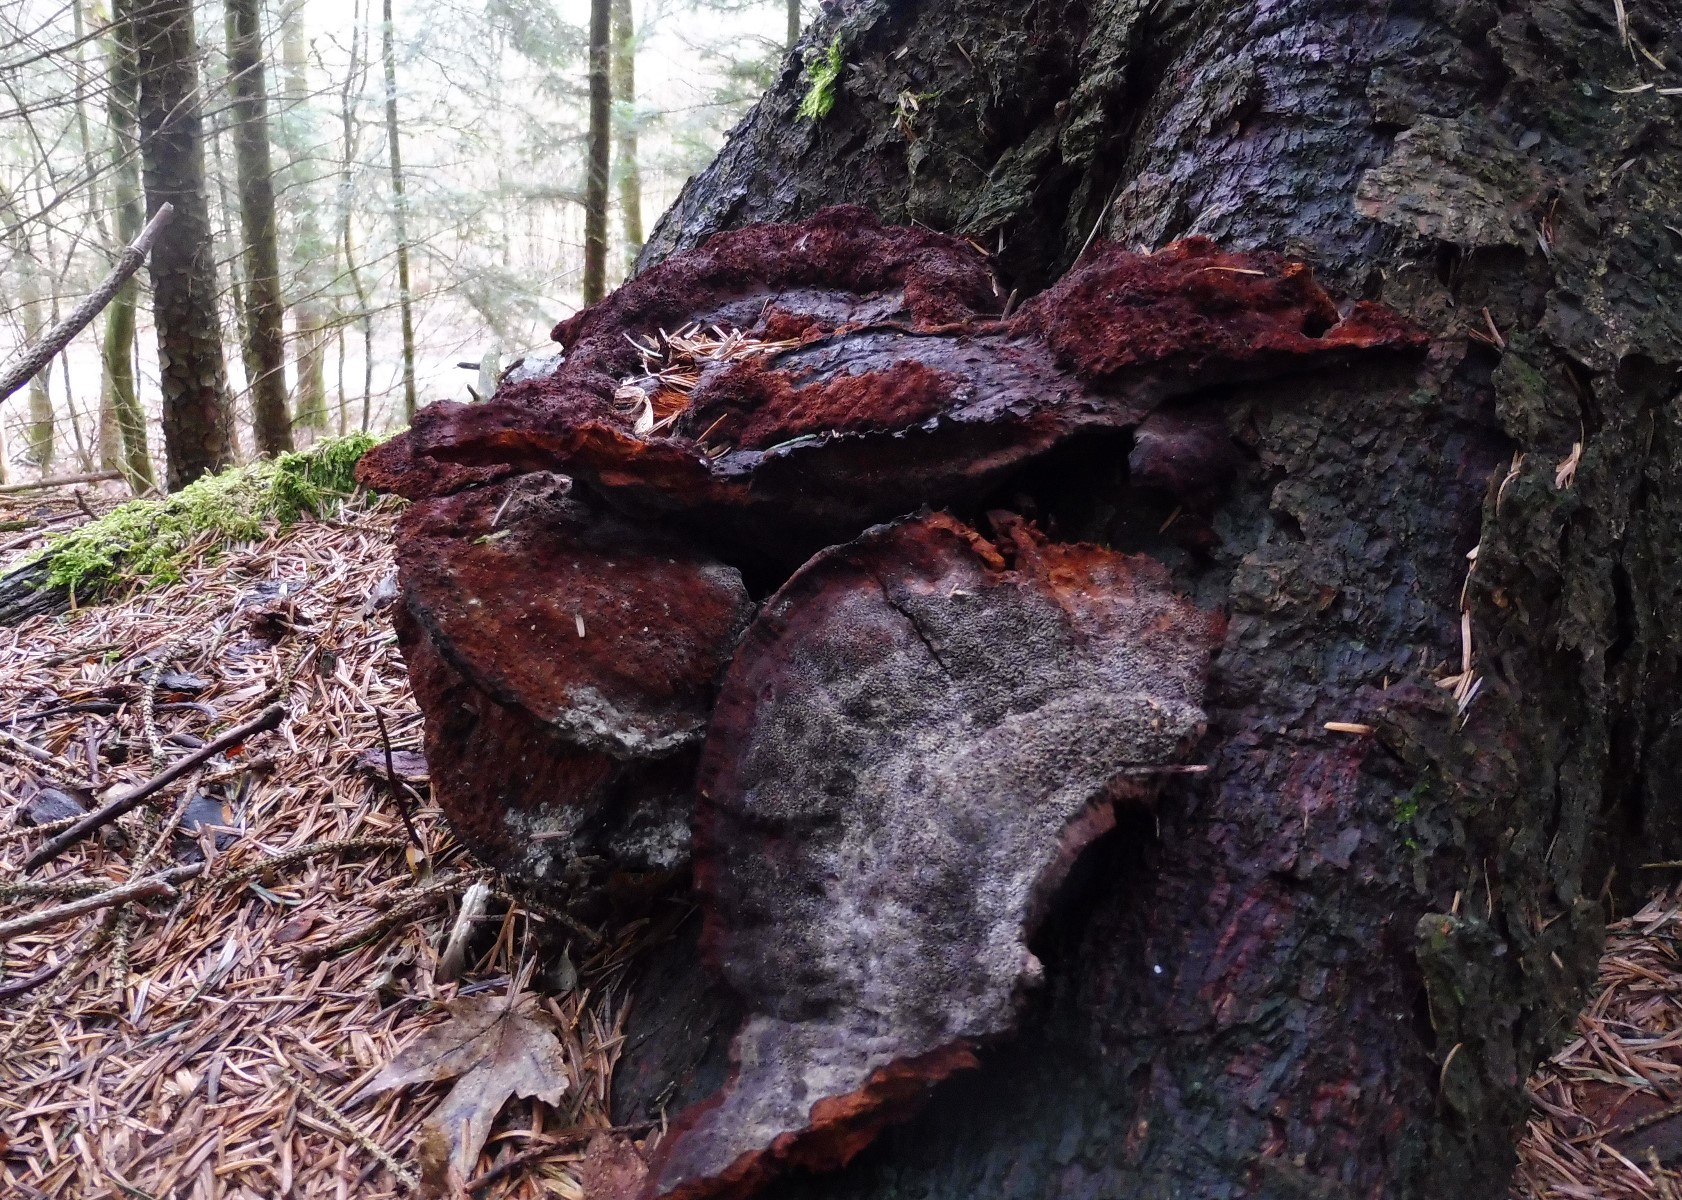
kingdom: Fungi
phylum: Basidiomycota
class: Agaricomycetes
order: Polyporales
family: Laetiporaceae
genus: Phaeolus
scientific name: Phaeolus schweinitzii
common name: brunporesvamp
